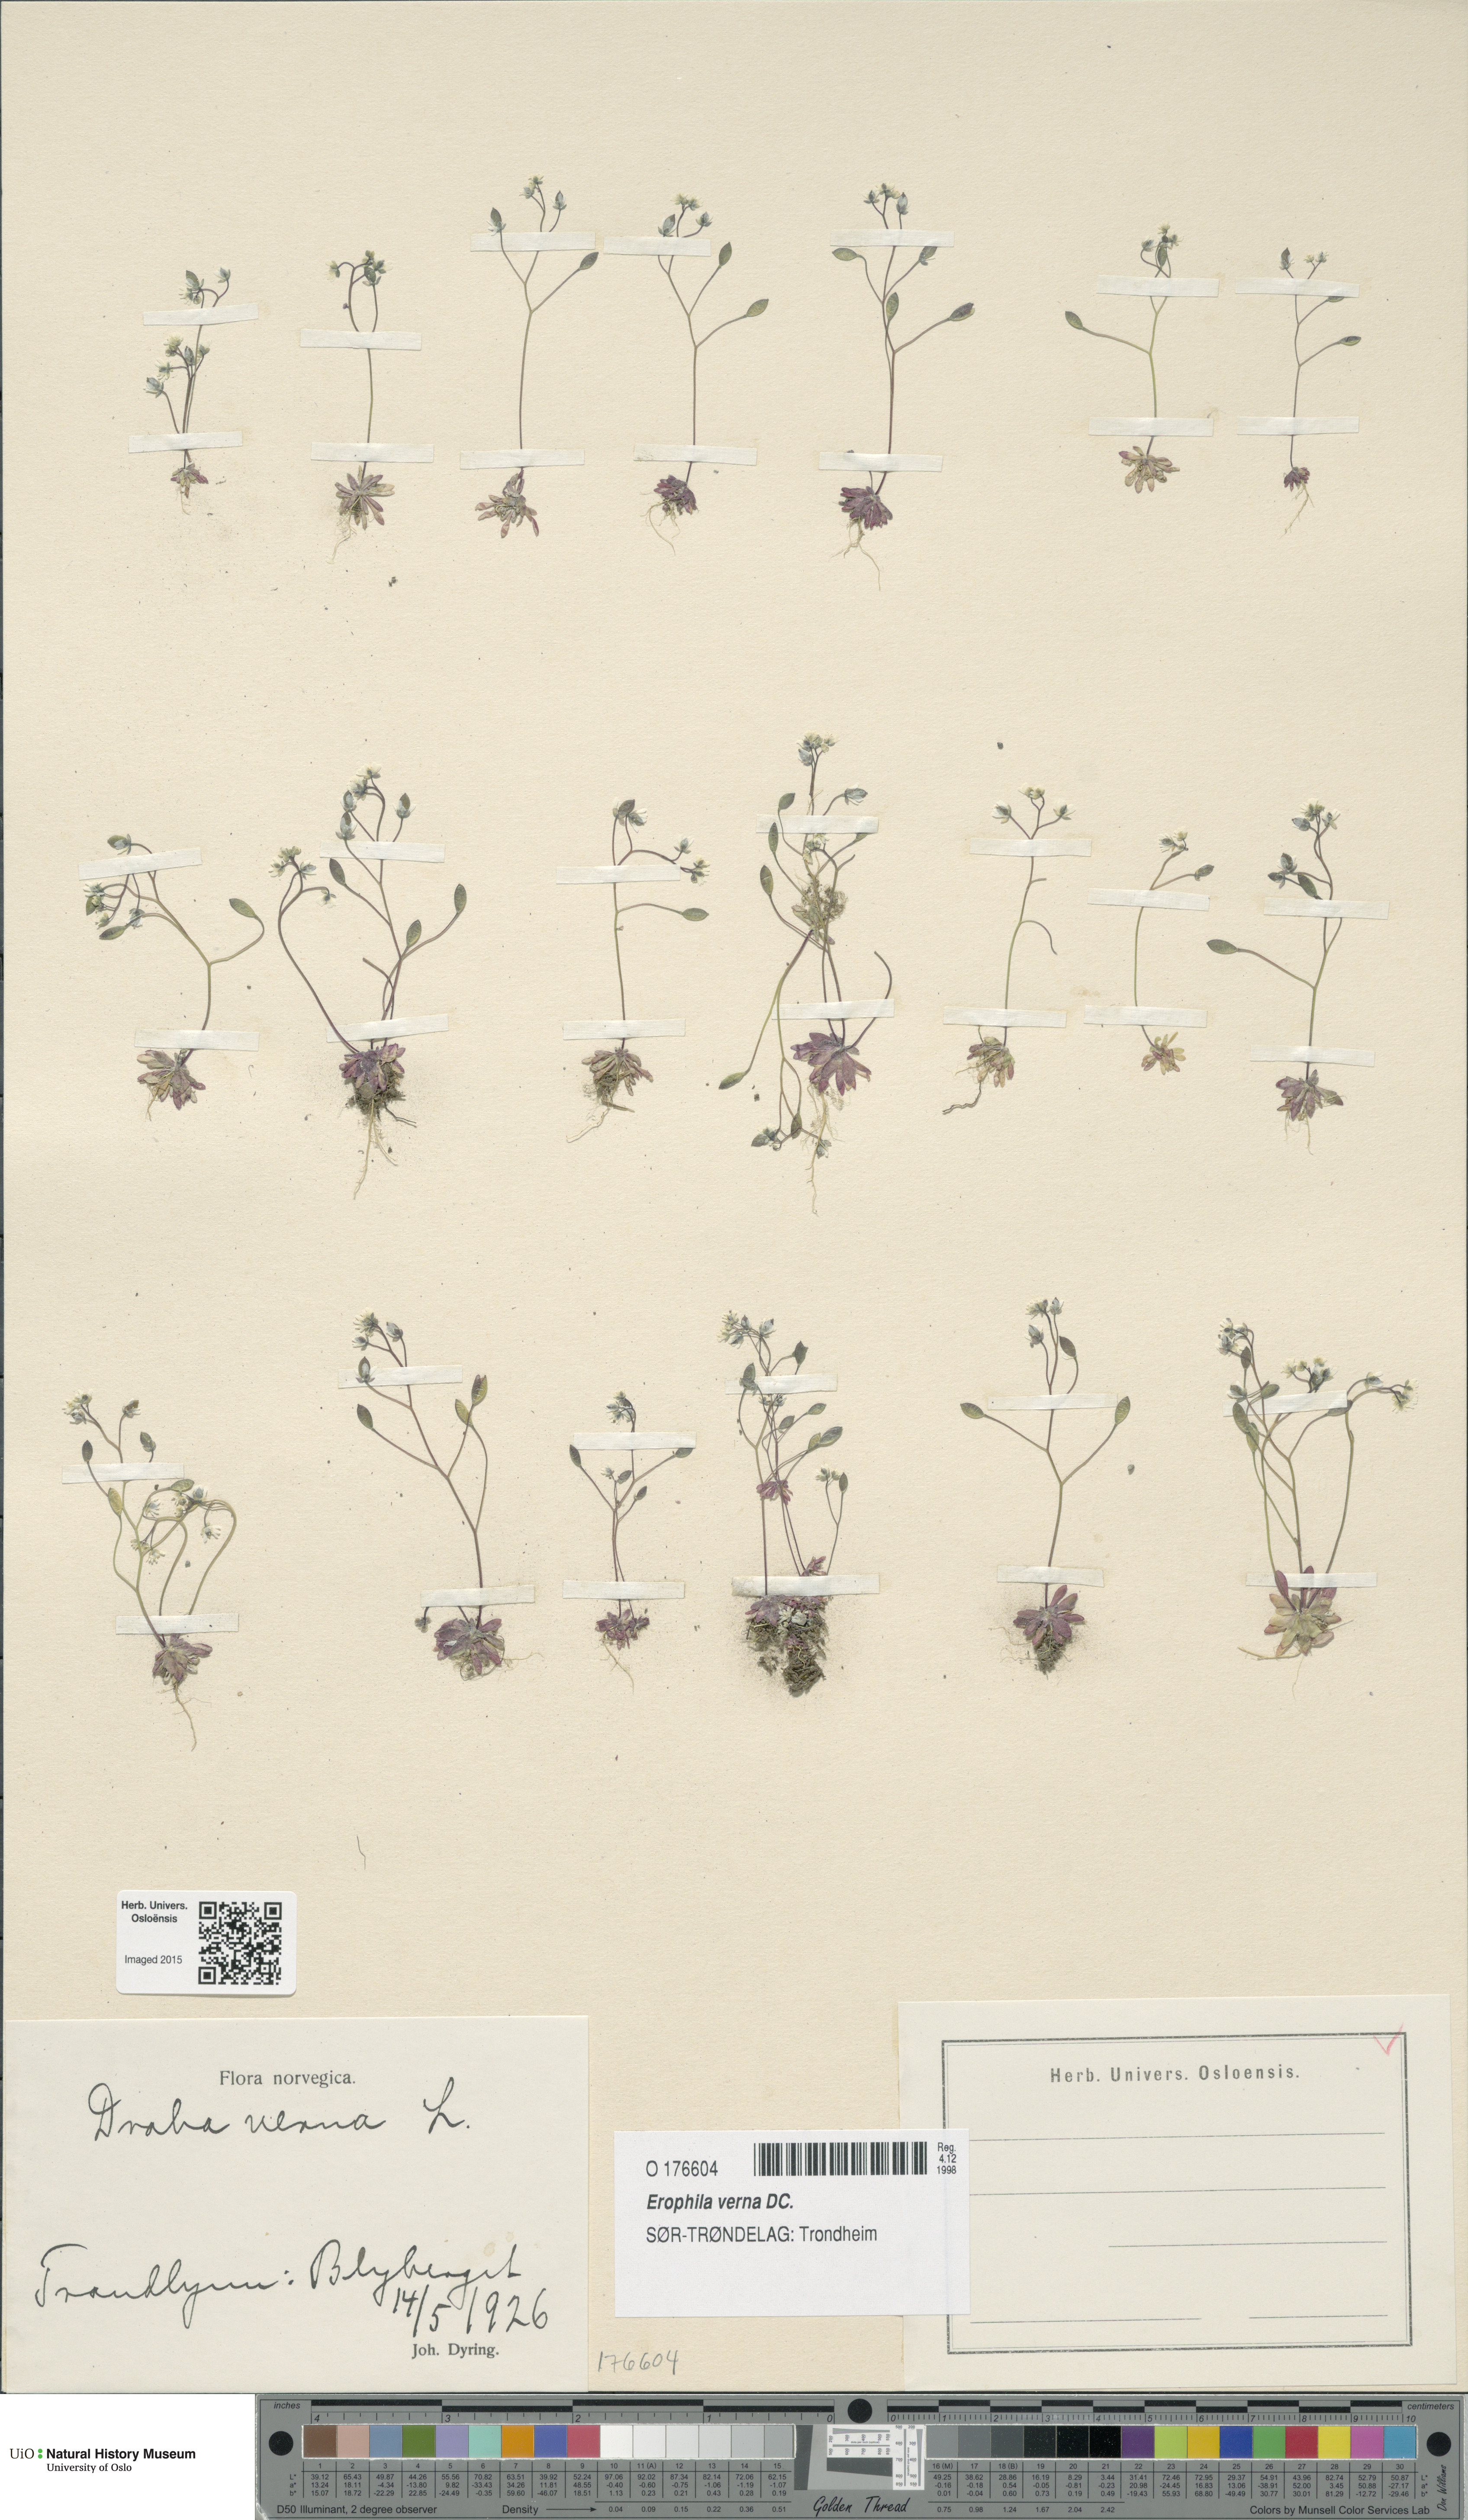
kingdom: Plantae
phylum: Tracheophyta
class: Magnoliopsida
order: Brassicales
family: Brassicaceae
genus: Draba
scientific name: Draba verna
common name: Spring draba
